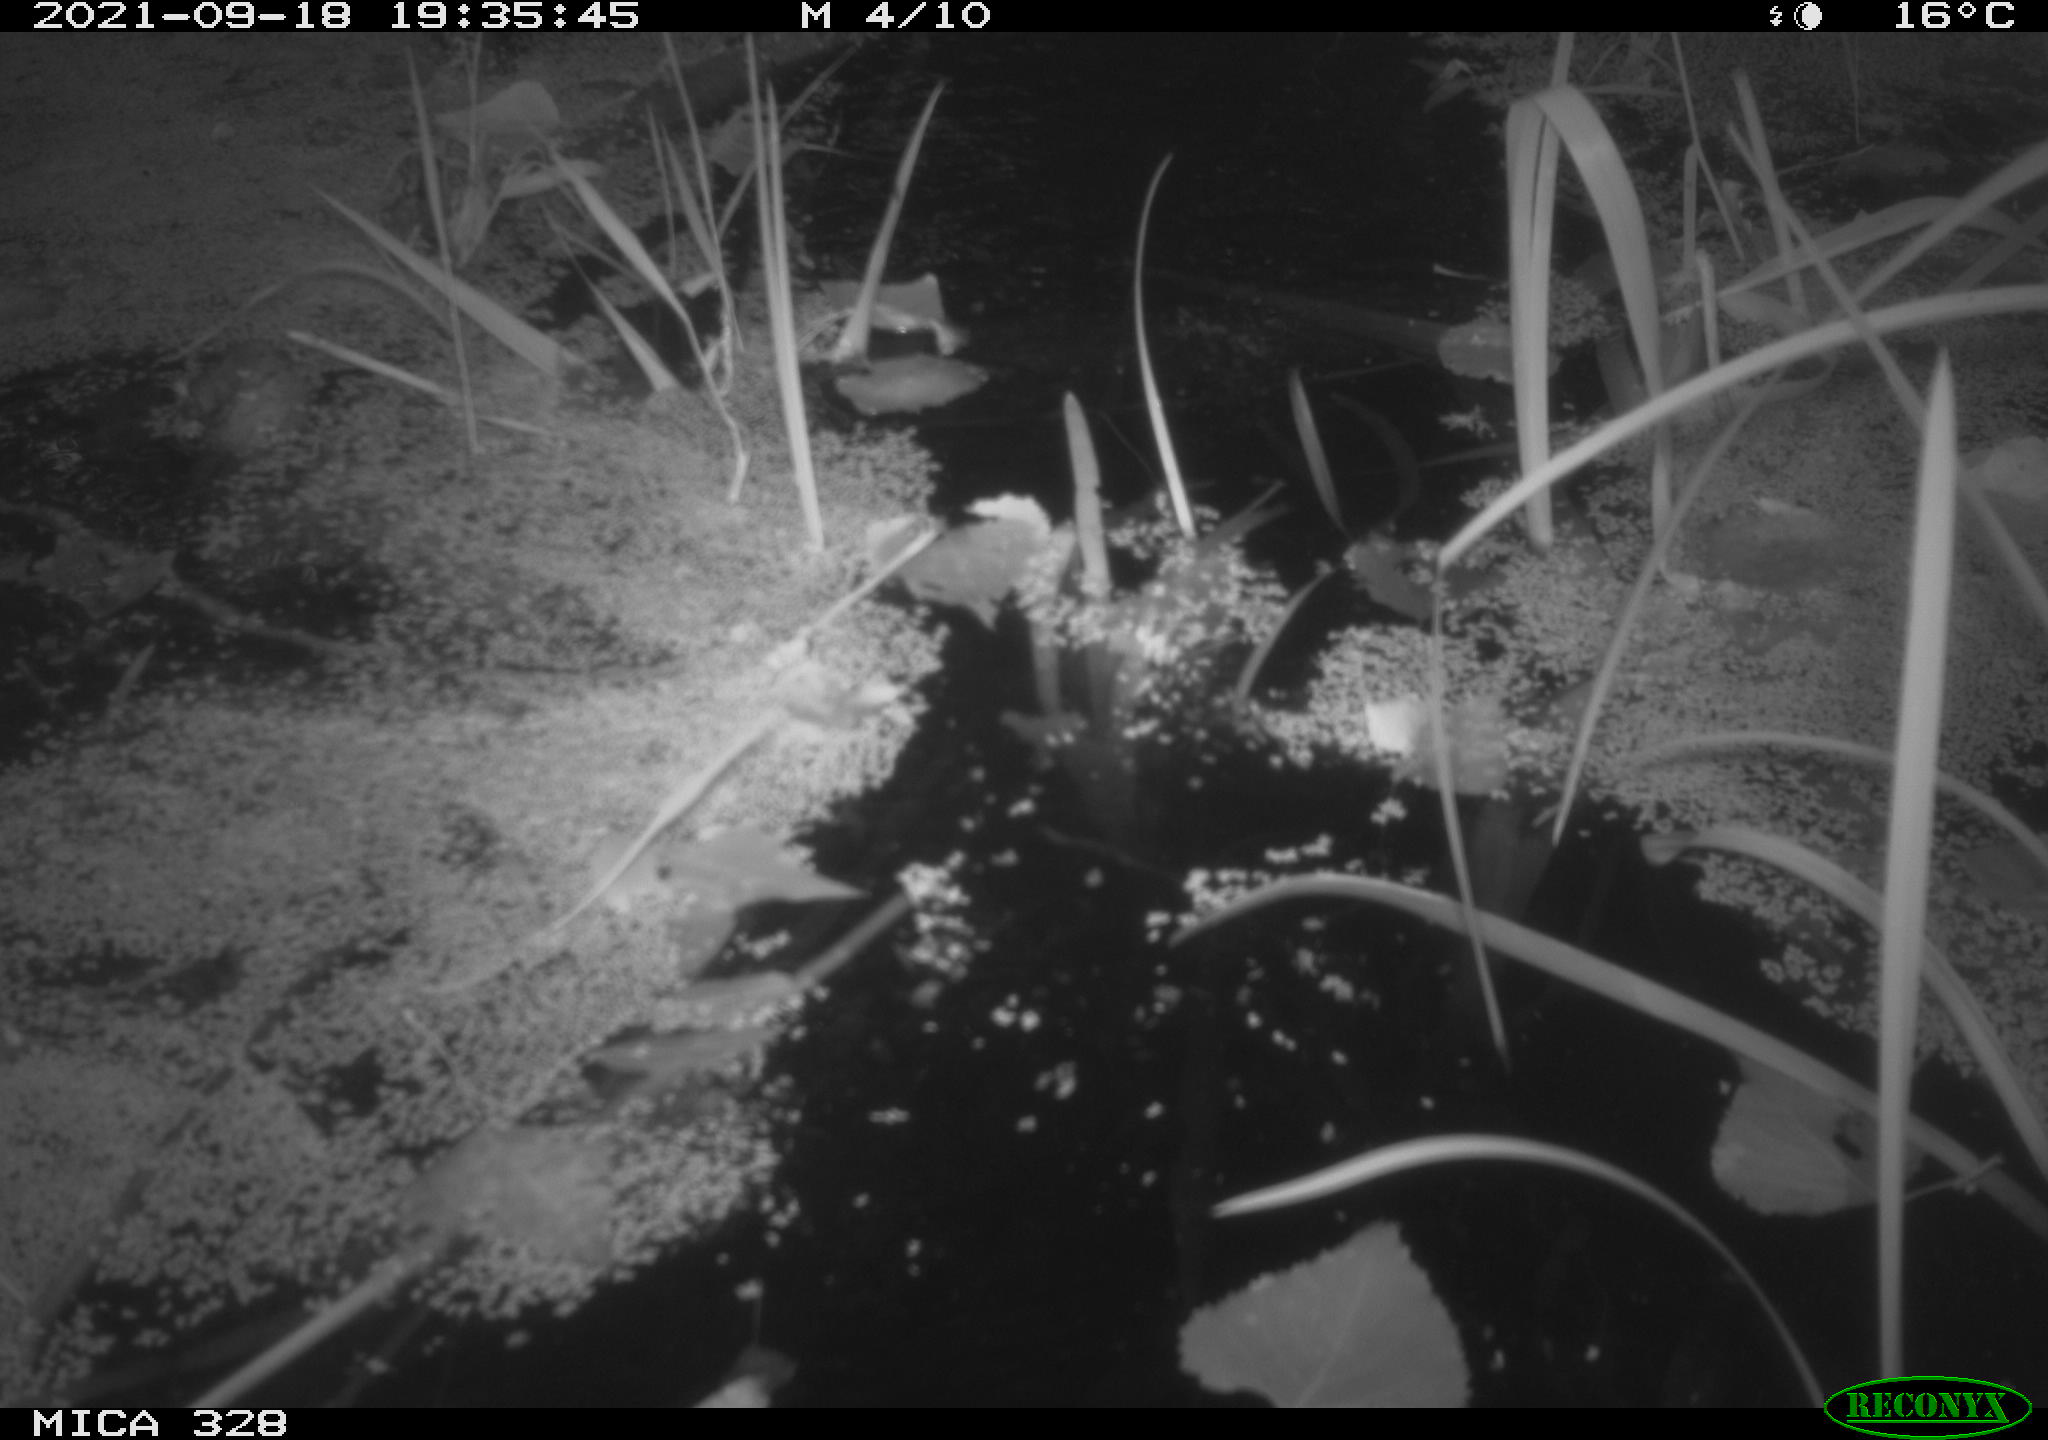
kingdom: Animalia
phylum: Chordata
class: Mammalia
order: Rodentia
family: Cricetidae
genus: Ondatra
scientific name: Ondatra zibethicus
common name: Muskrat
